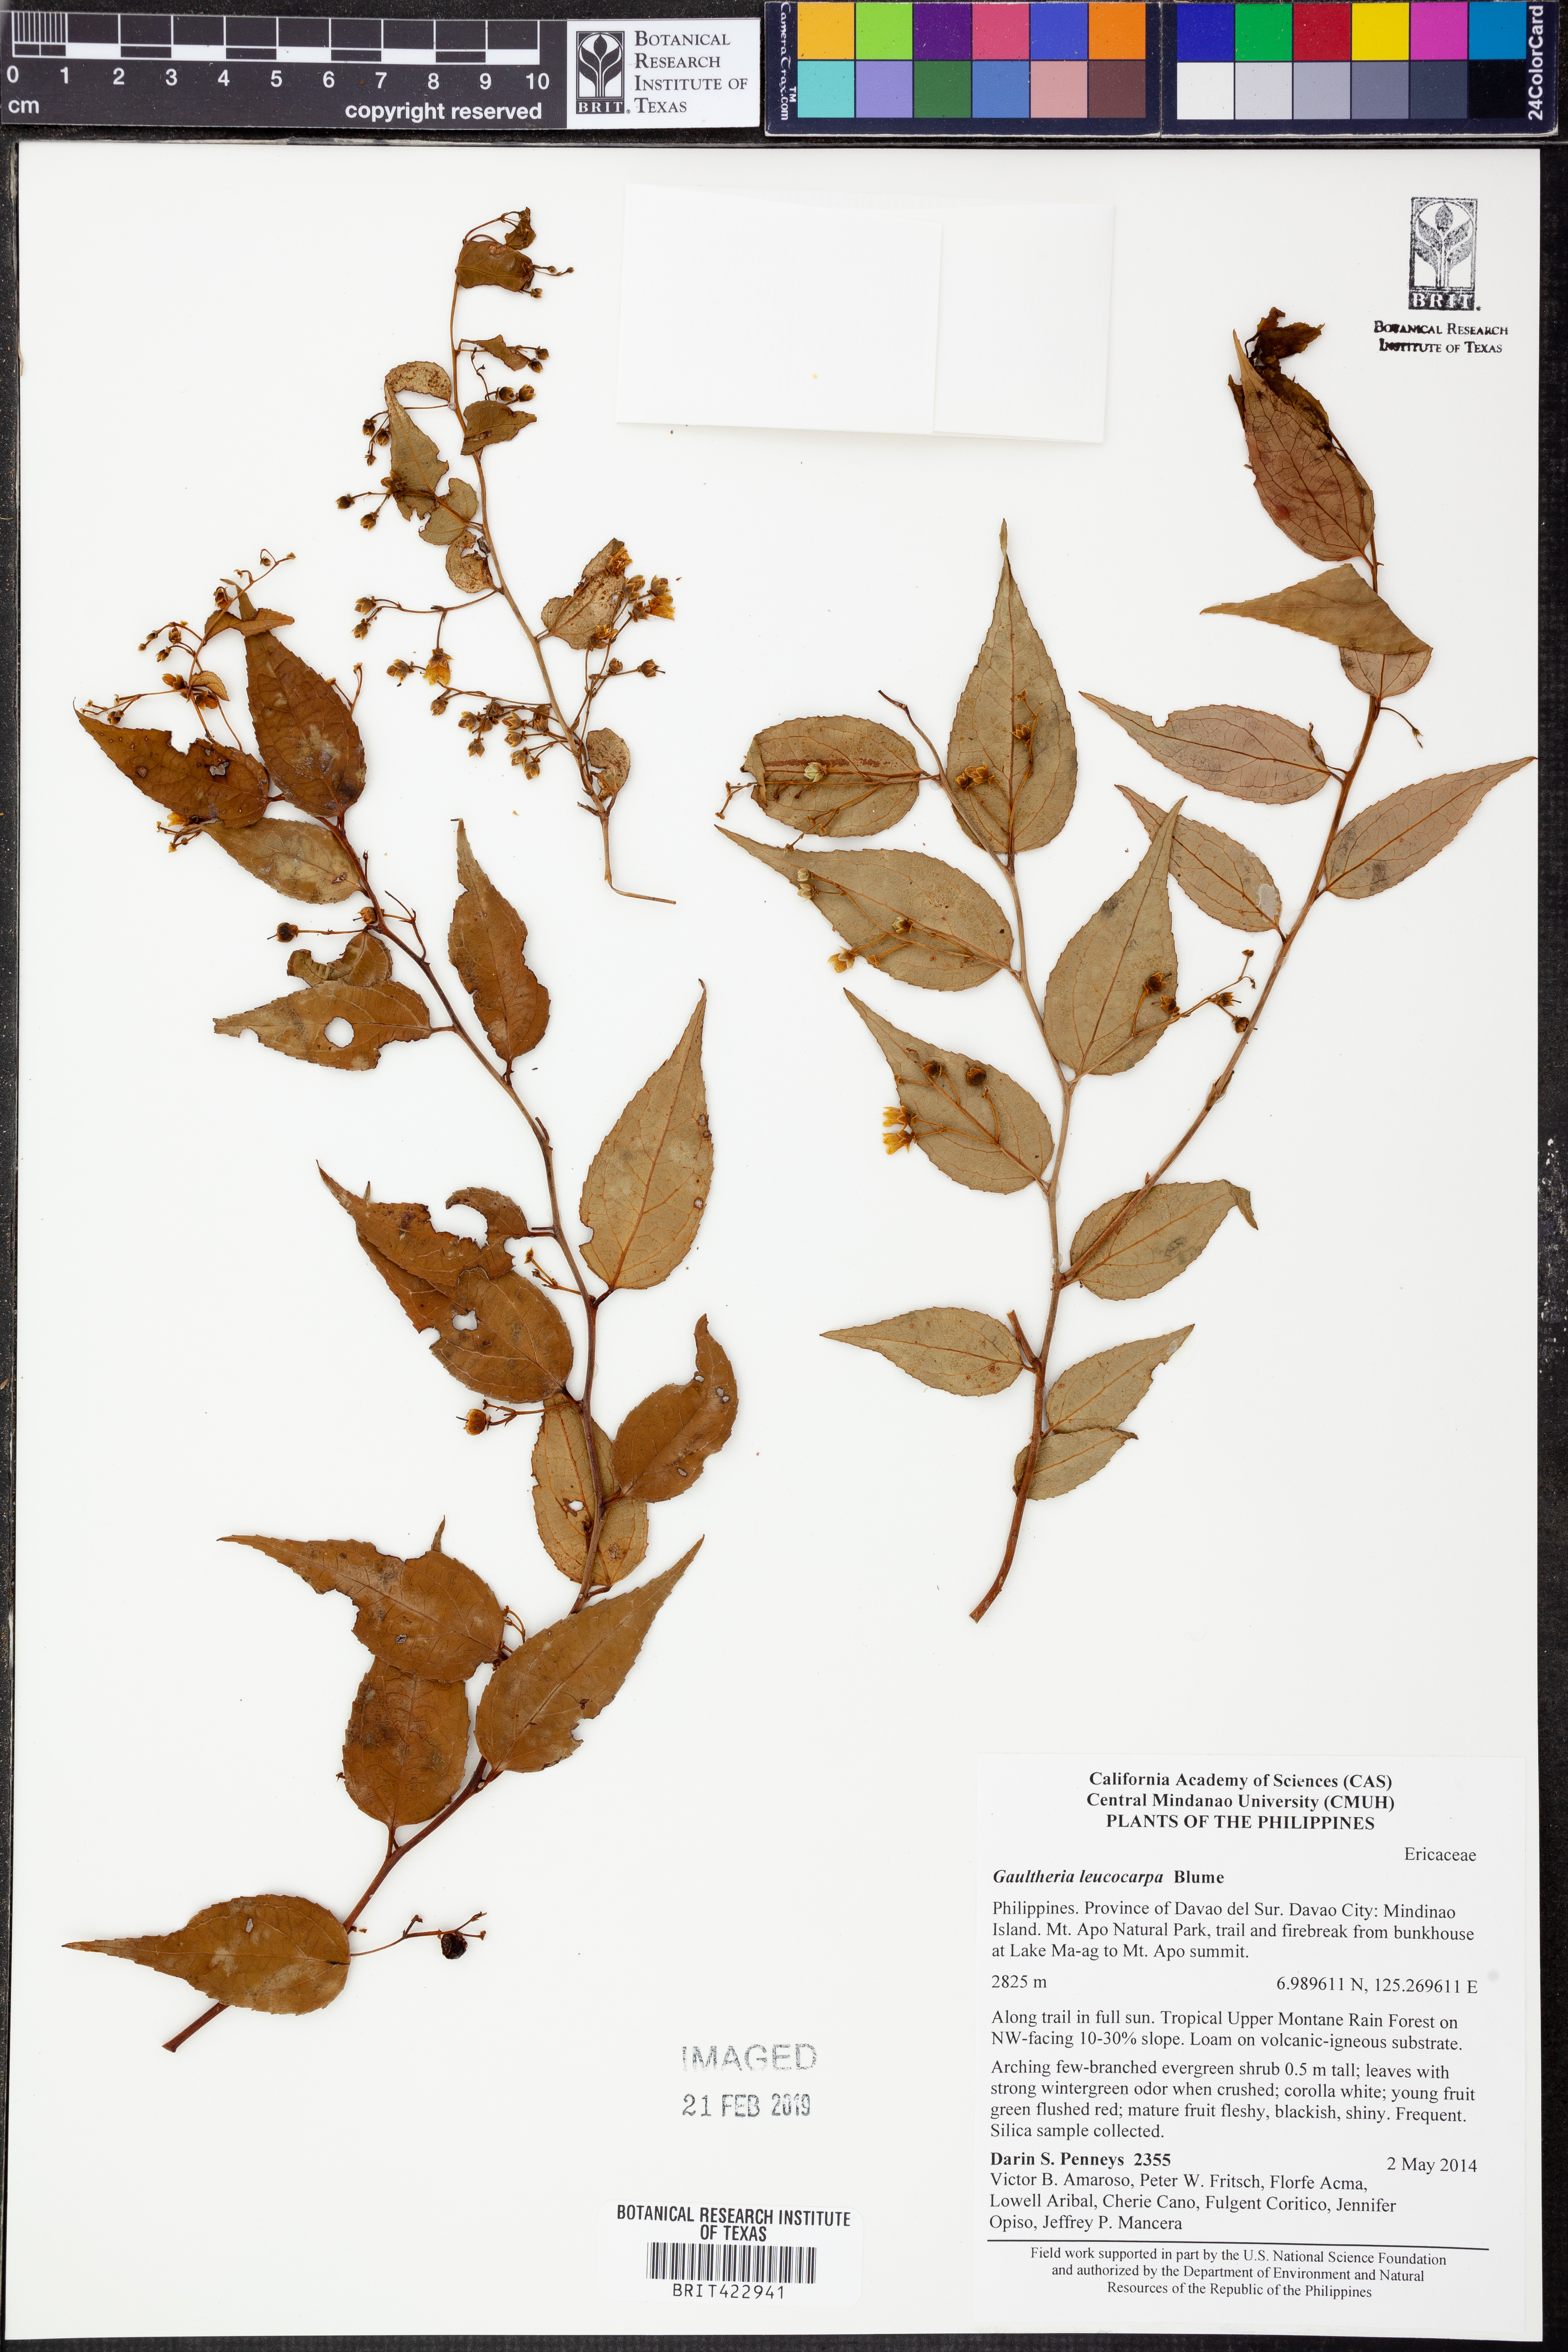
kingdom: Plantae
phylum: Tracheophyta
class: Magnoliopsida
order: Ericales
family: Ericaceae
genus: Rhododendron
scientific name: Rhododendron
